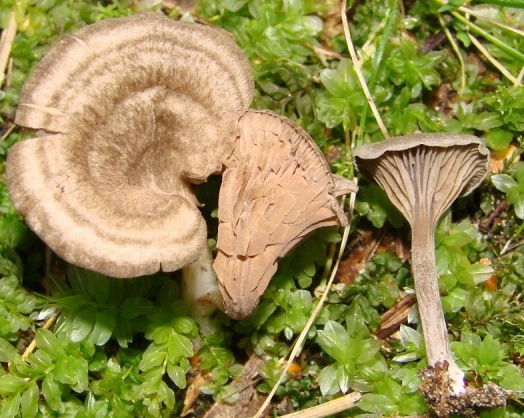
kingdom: Fungi
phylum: Basidiomycota
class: Agaricomycetes
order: Agaricales
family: Entolomataceae
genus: Entoloma
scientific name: Entoloma undatum
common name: bæltet rødblad
